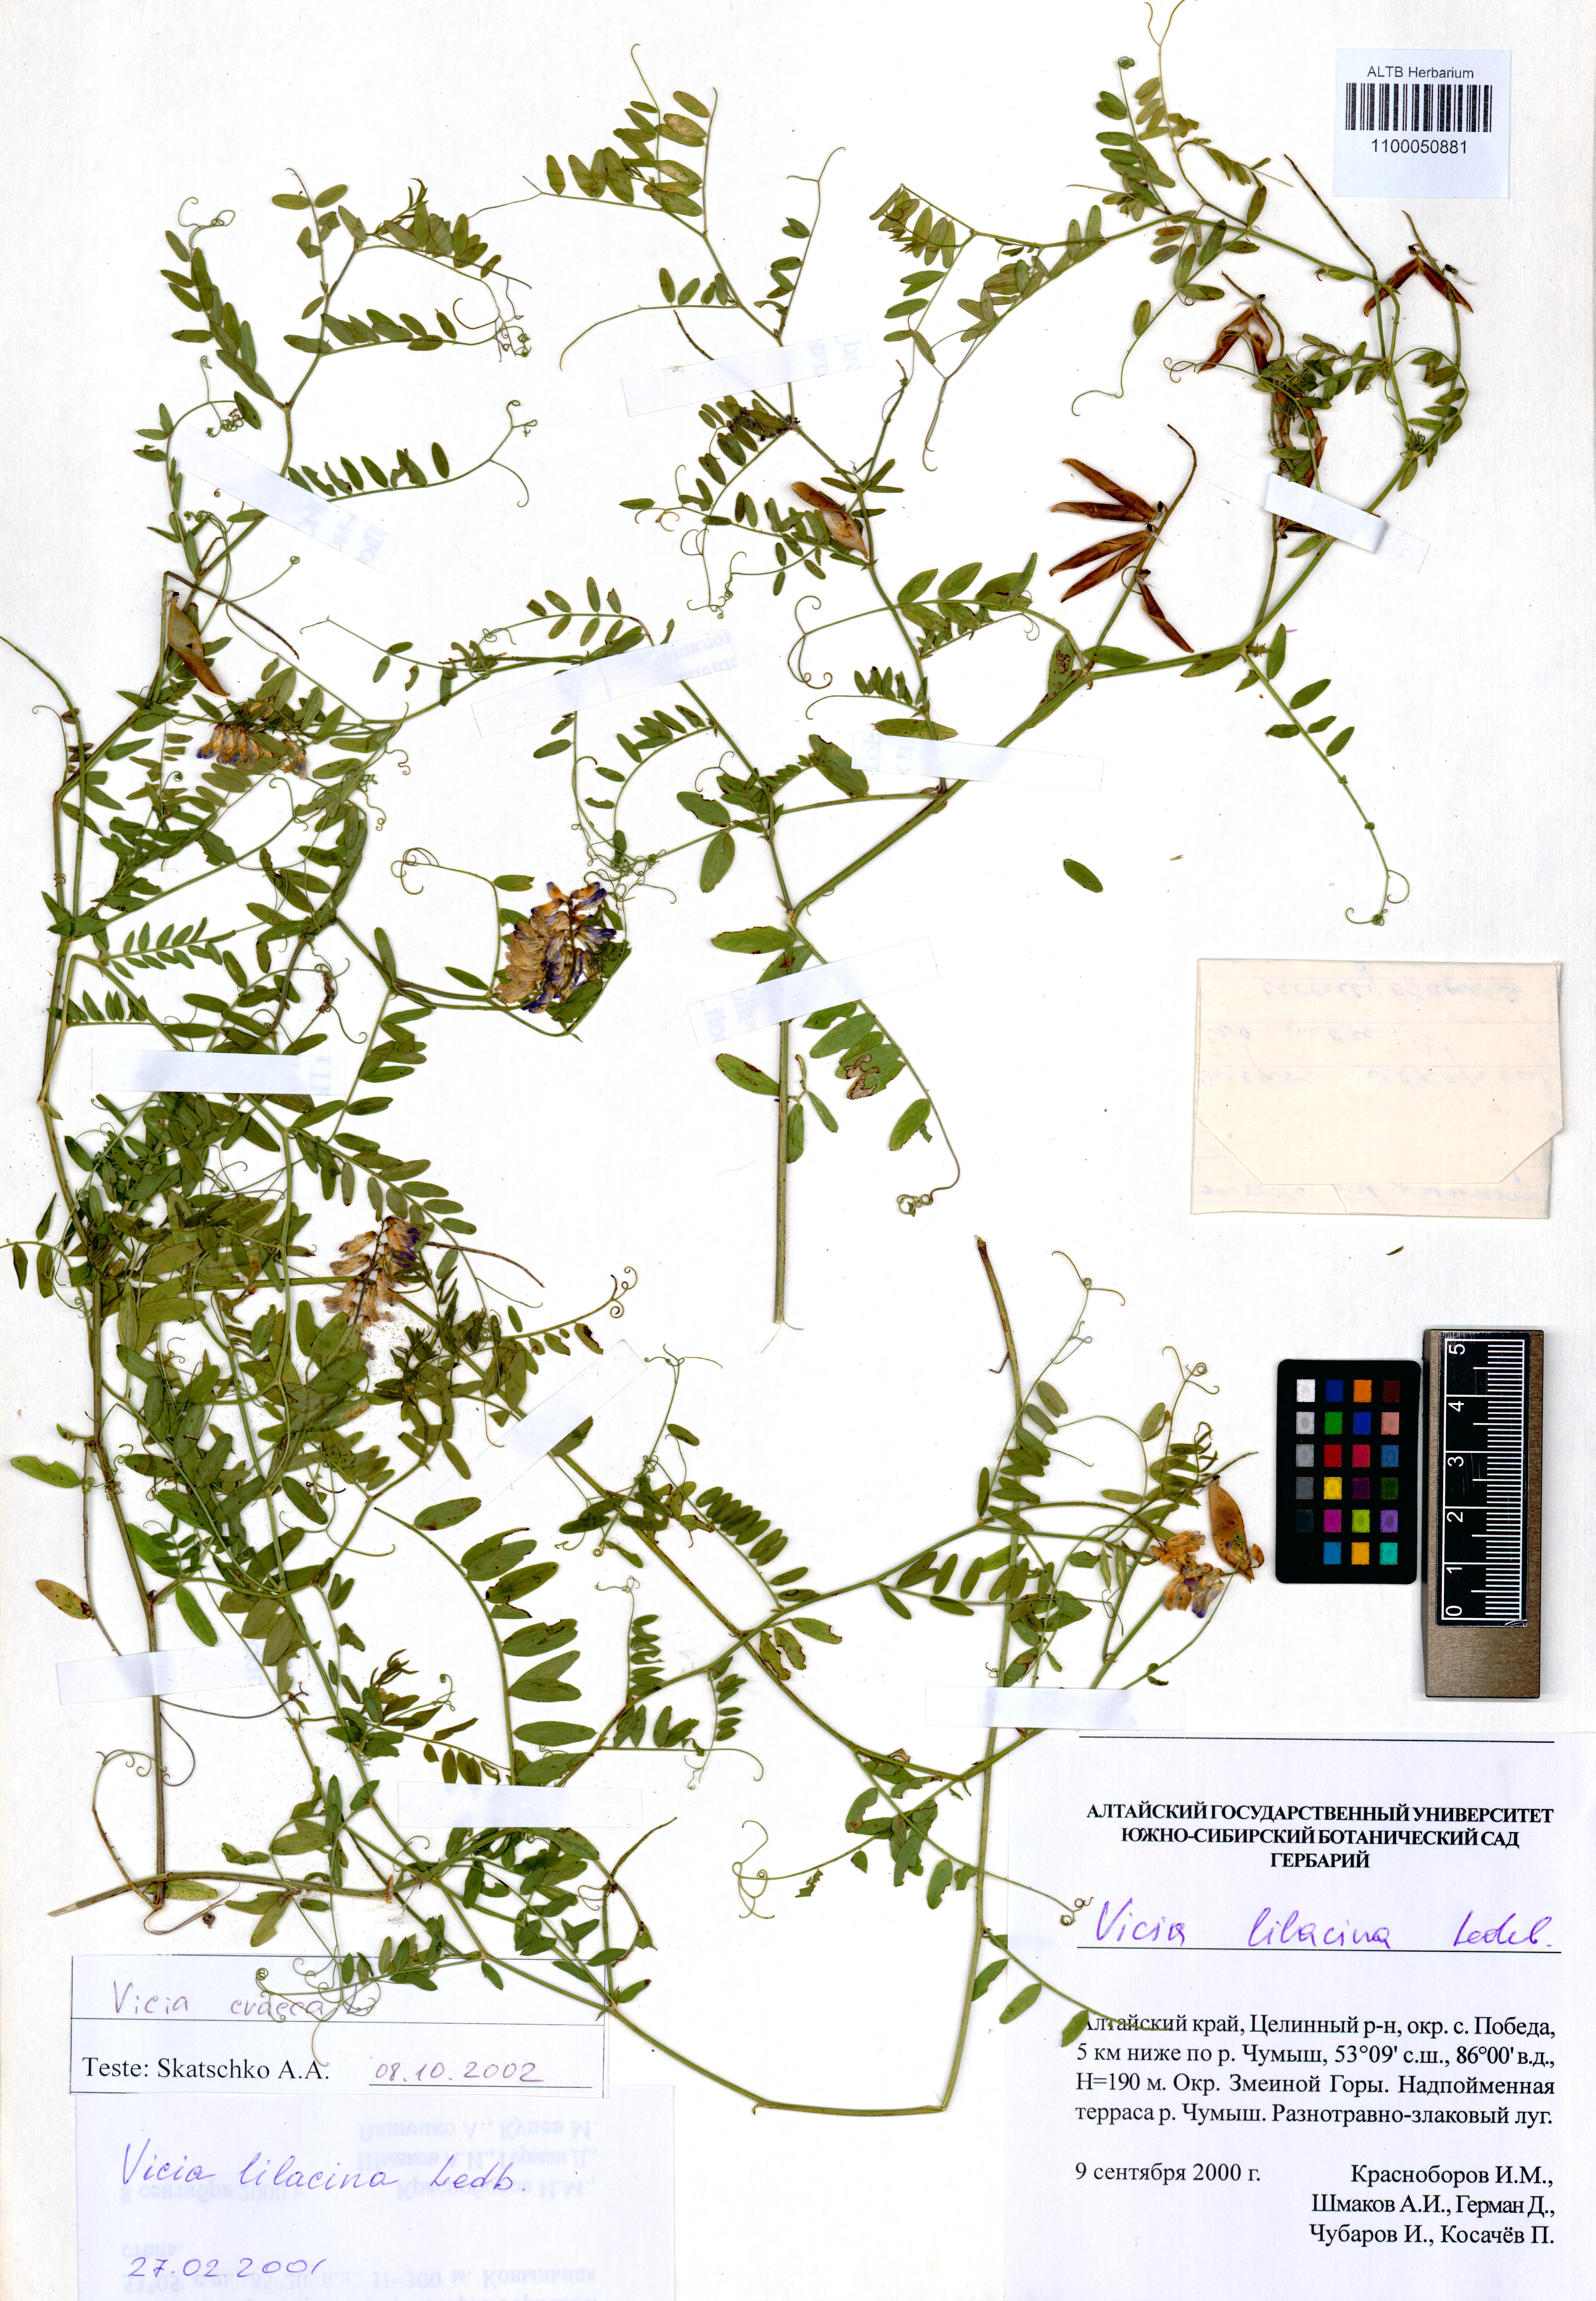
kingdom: Plantae
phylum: Tracheophyta
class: Magnoliopsida
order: Fabales
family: Fabaceae
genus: Vicia
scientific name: Vicia lilacina
